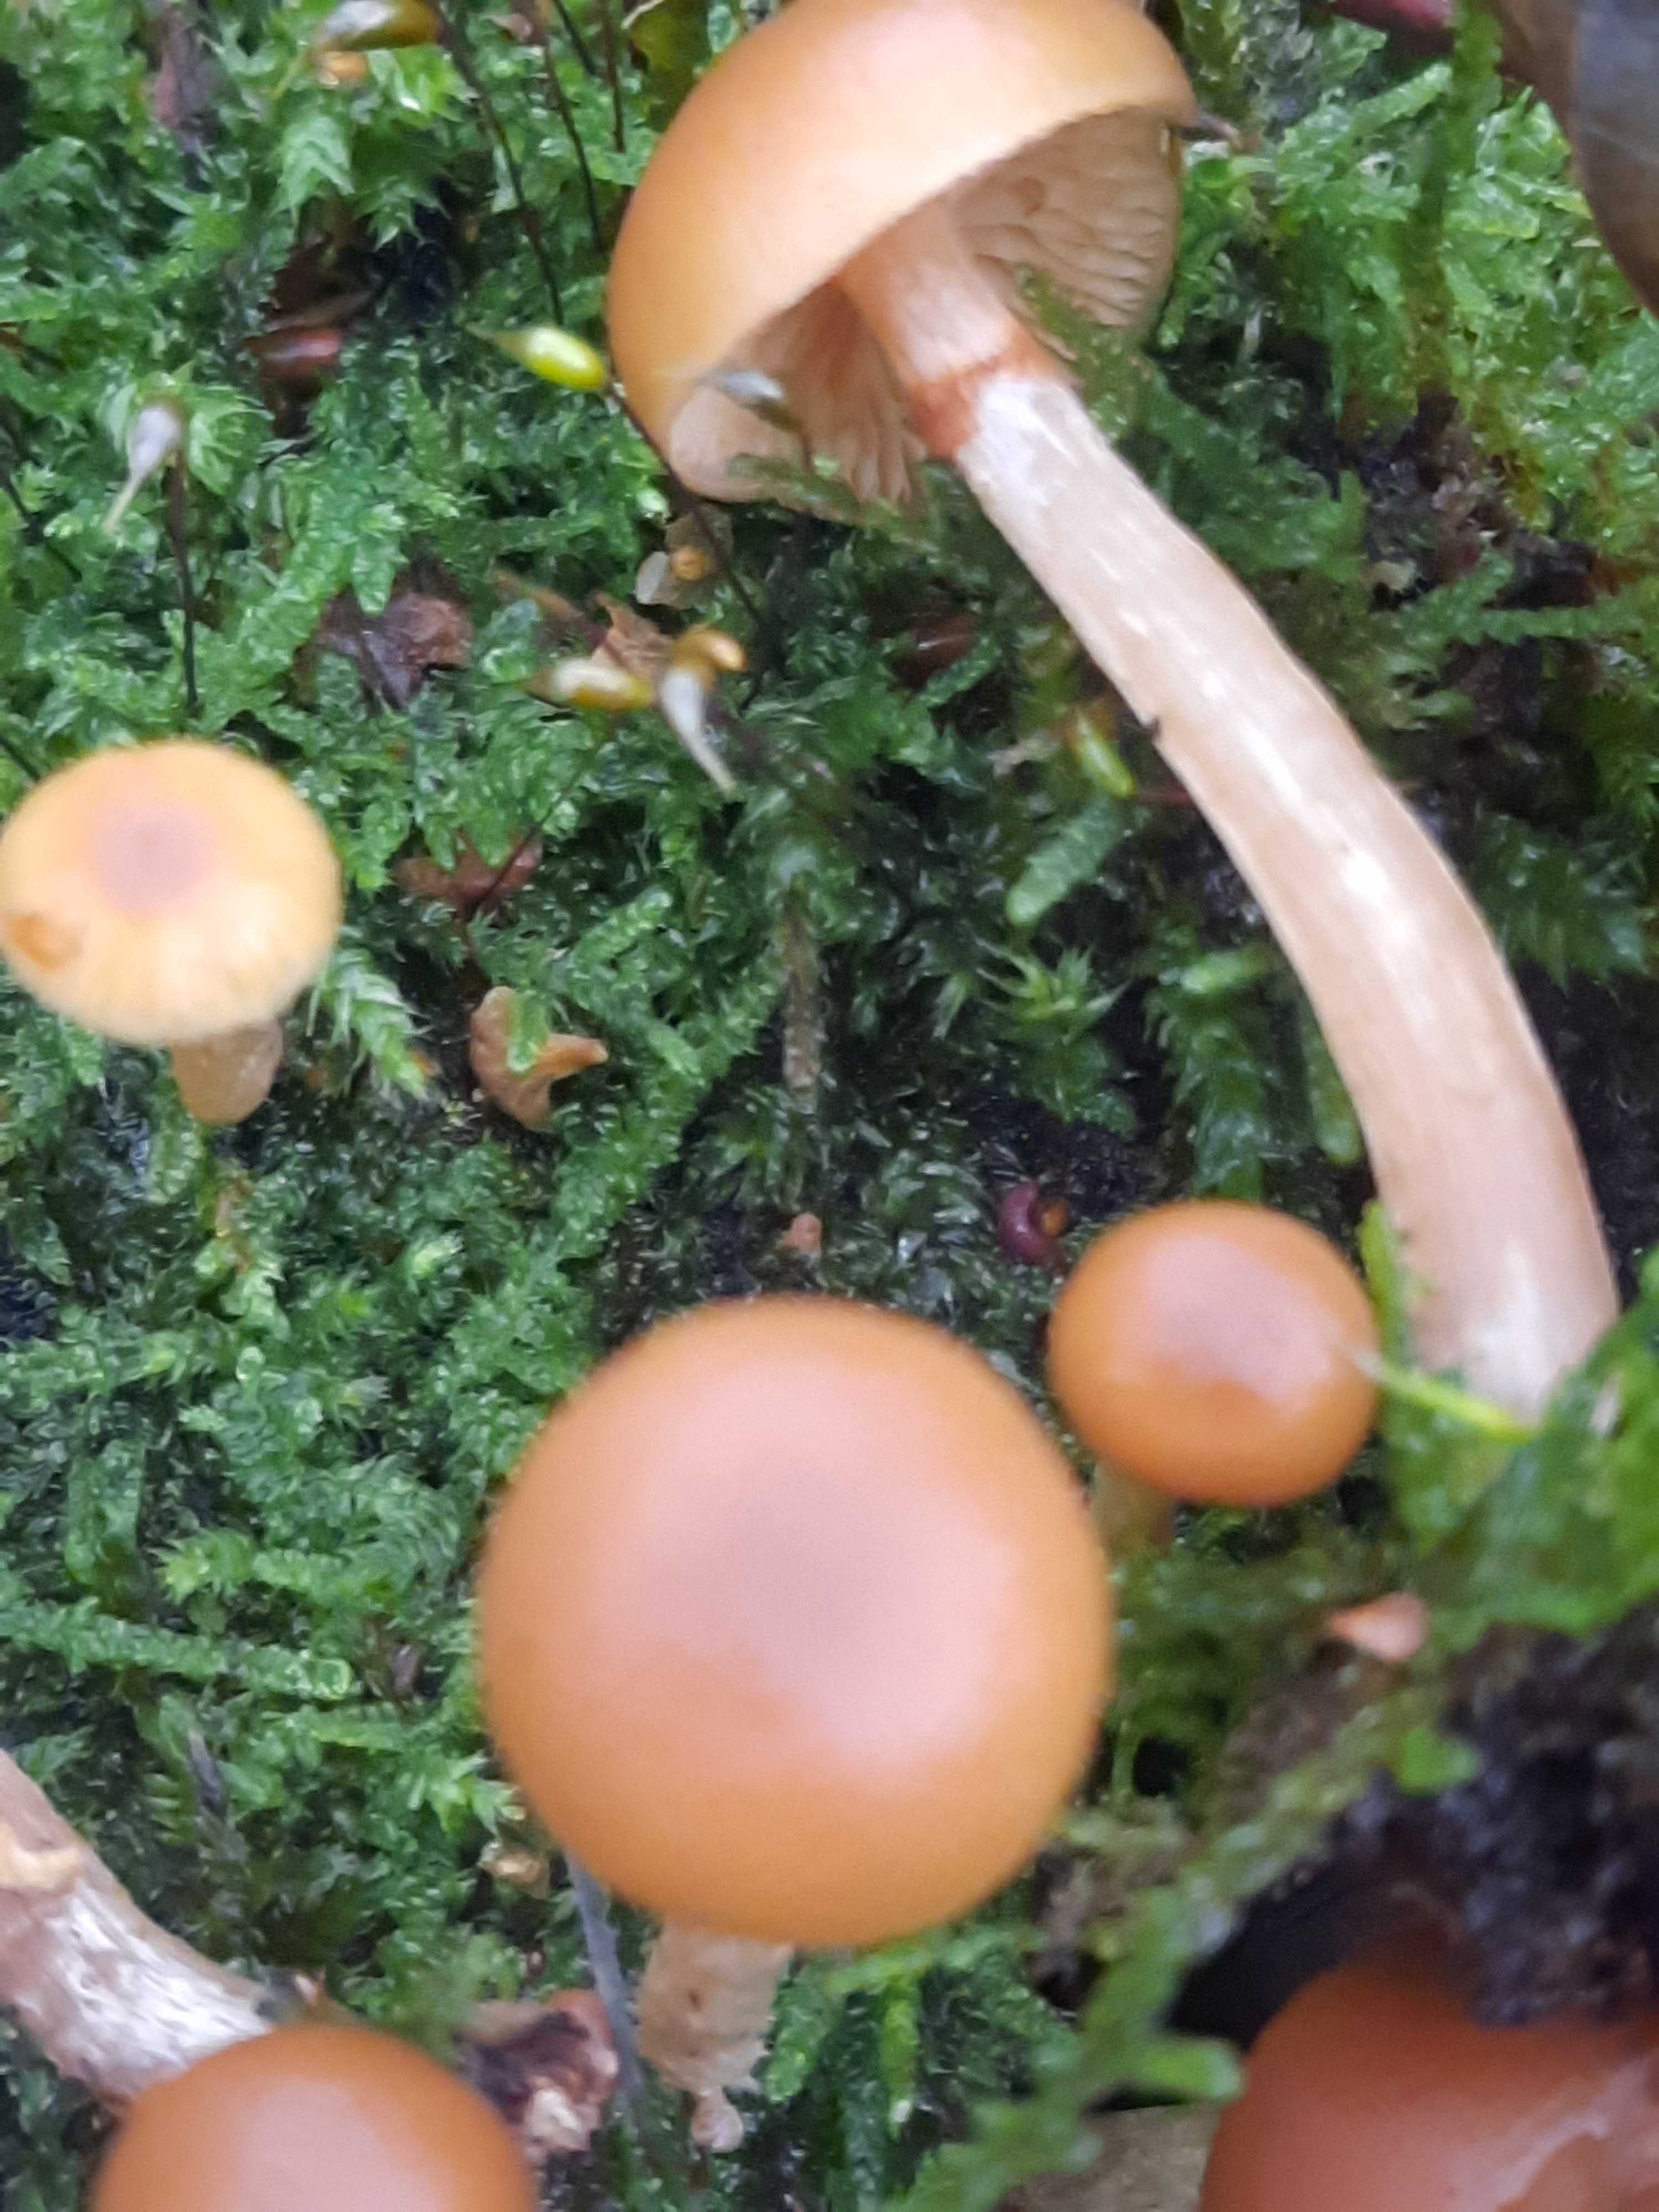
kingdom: Fungi
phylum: Basidiomycota
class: Agaricomycetes
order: Agaricales
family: Hymenogastraceae
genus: Galerina
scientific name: Galerina marginata
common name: randbæltet hjelmhat
